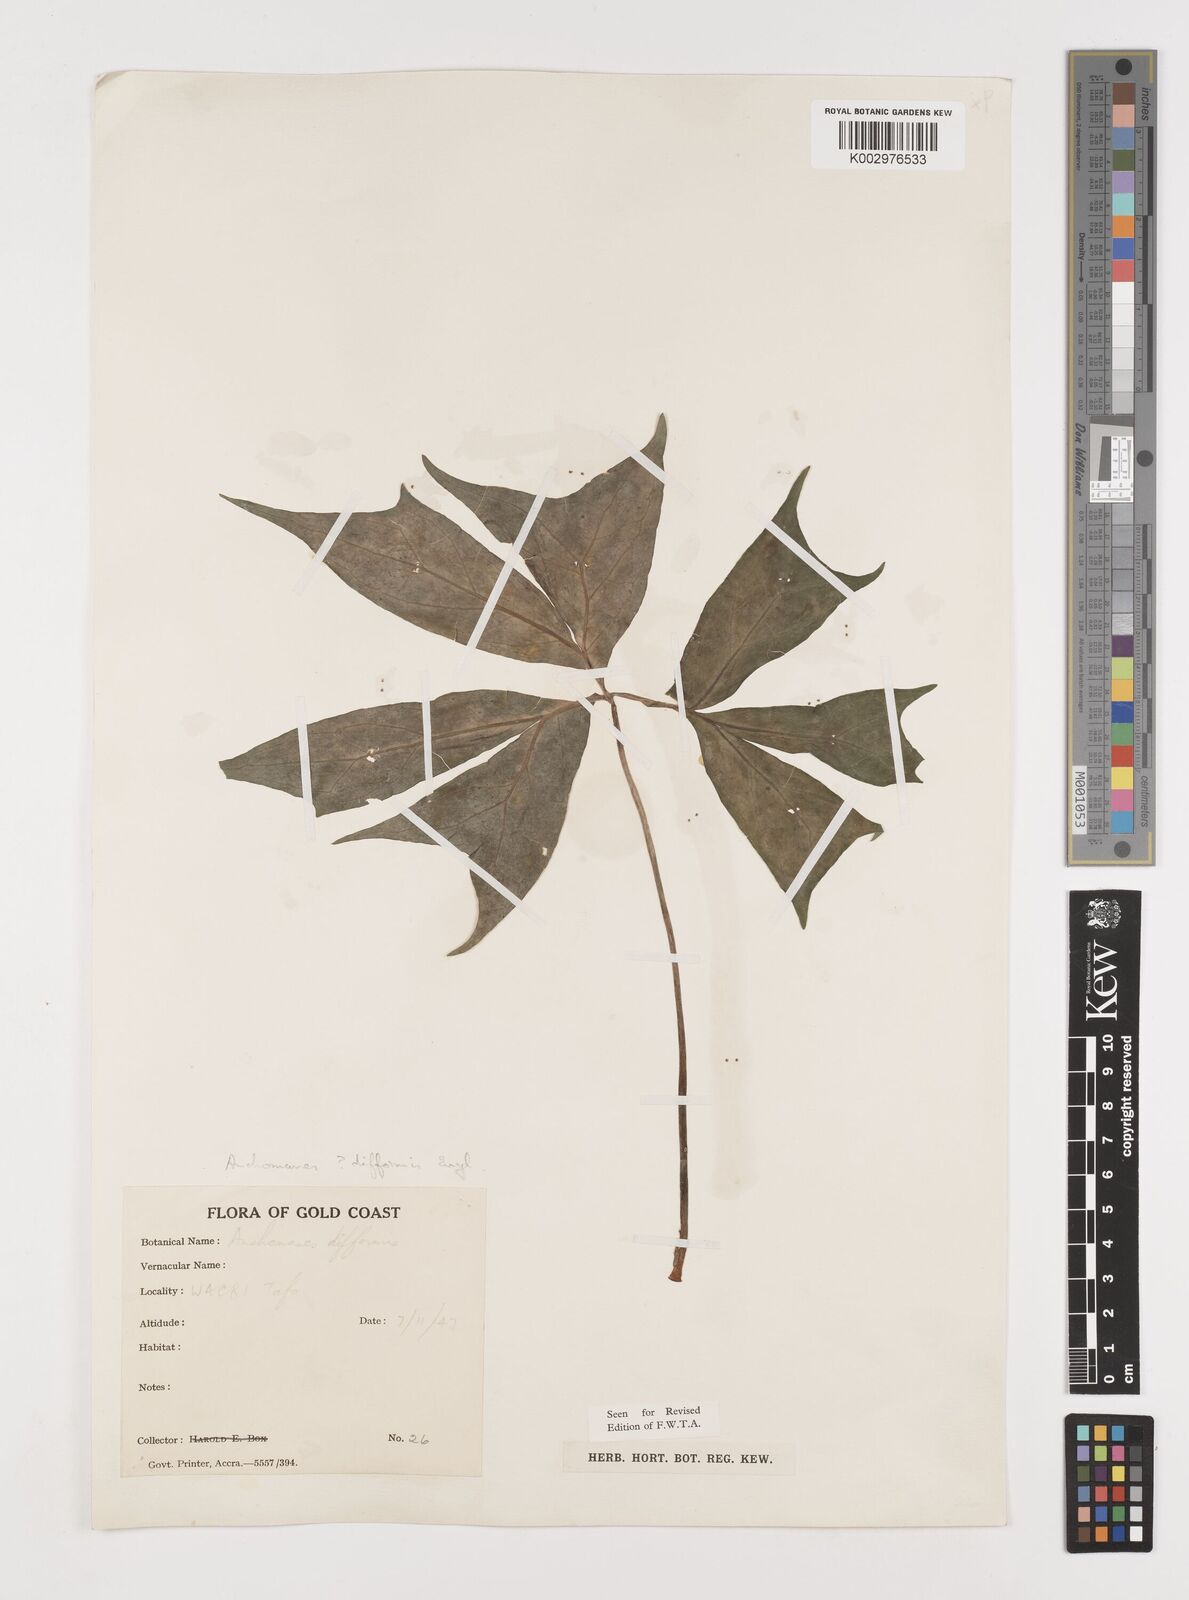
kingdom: Plantae
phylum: Tracheophyta
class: Liliopsida
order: Alismatales
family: Araceae
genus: Anchomanes
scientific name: Anchomanes difformis
